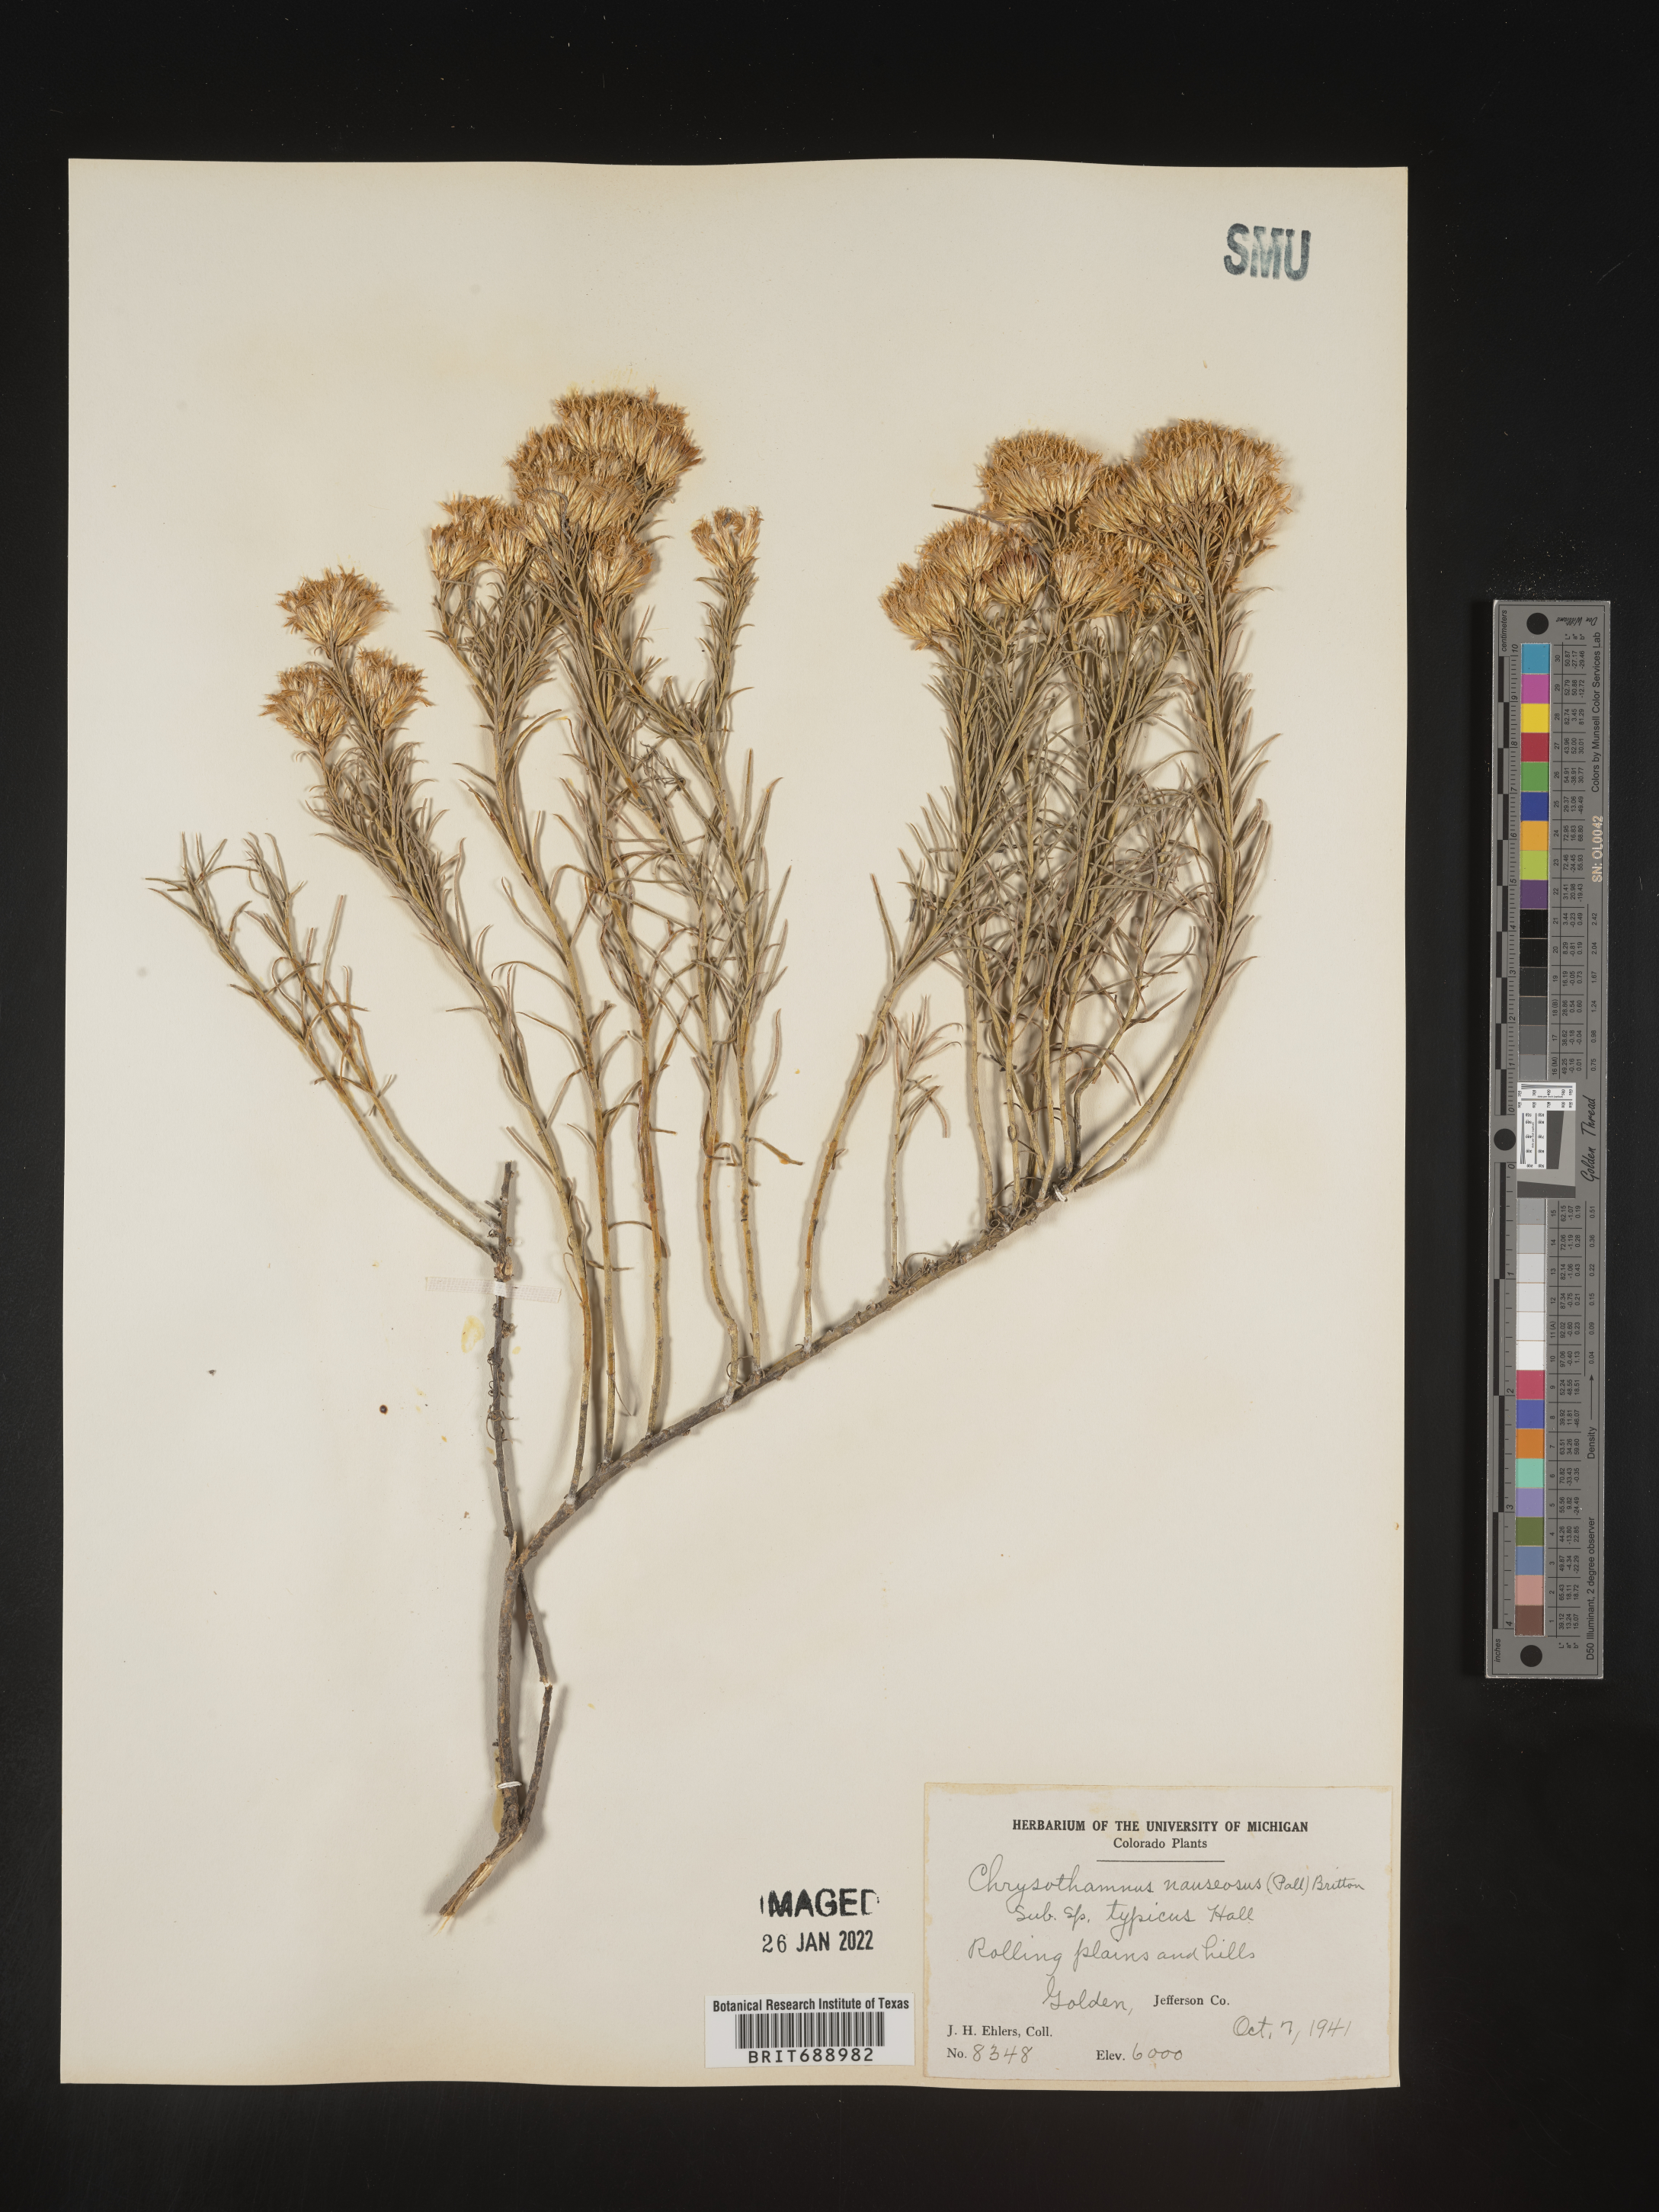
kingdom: Plantae
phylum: Tracheophyta
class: Magnoliopsida
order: Asterales
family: Asteraceae
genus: Ericameria
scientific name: Ericameria nauseosa
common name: Rubber rabbitbrush
